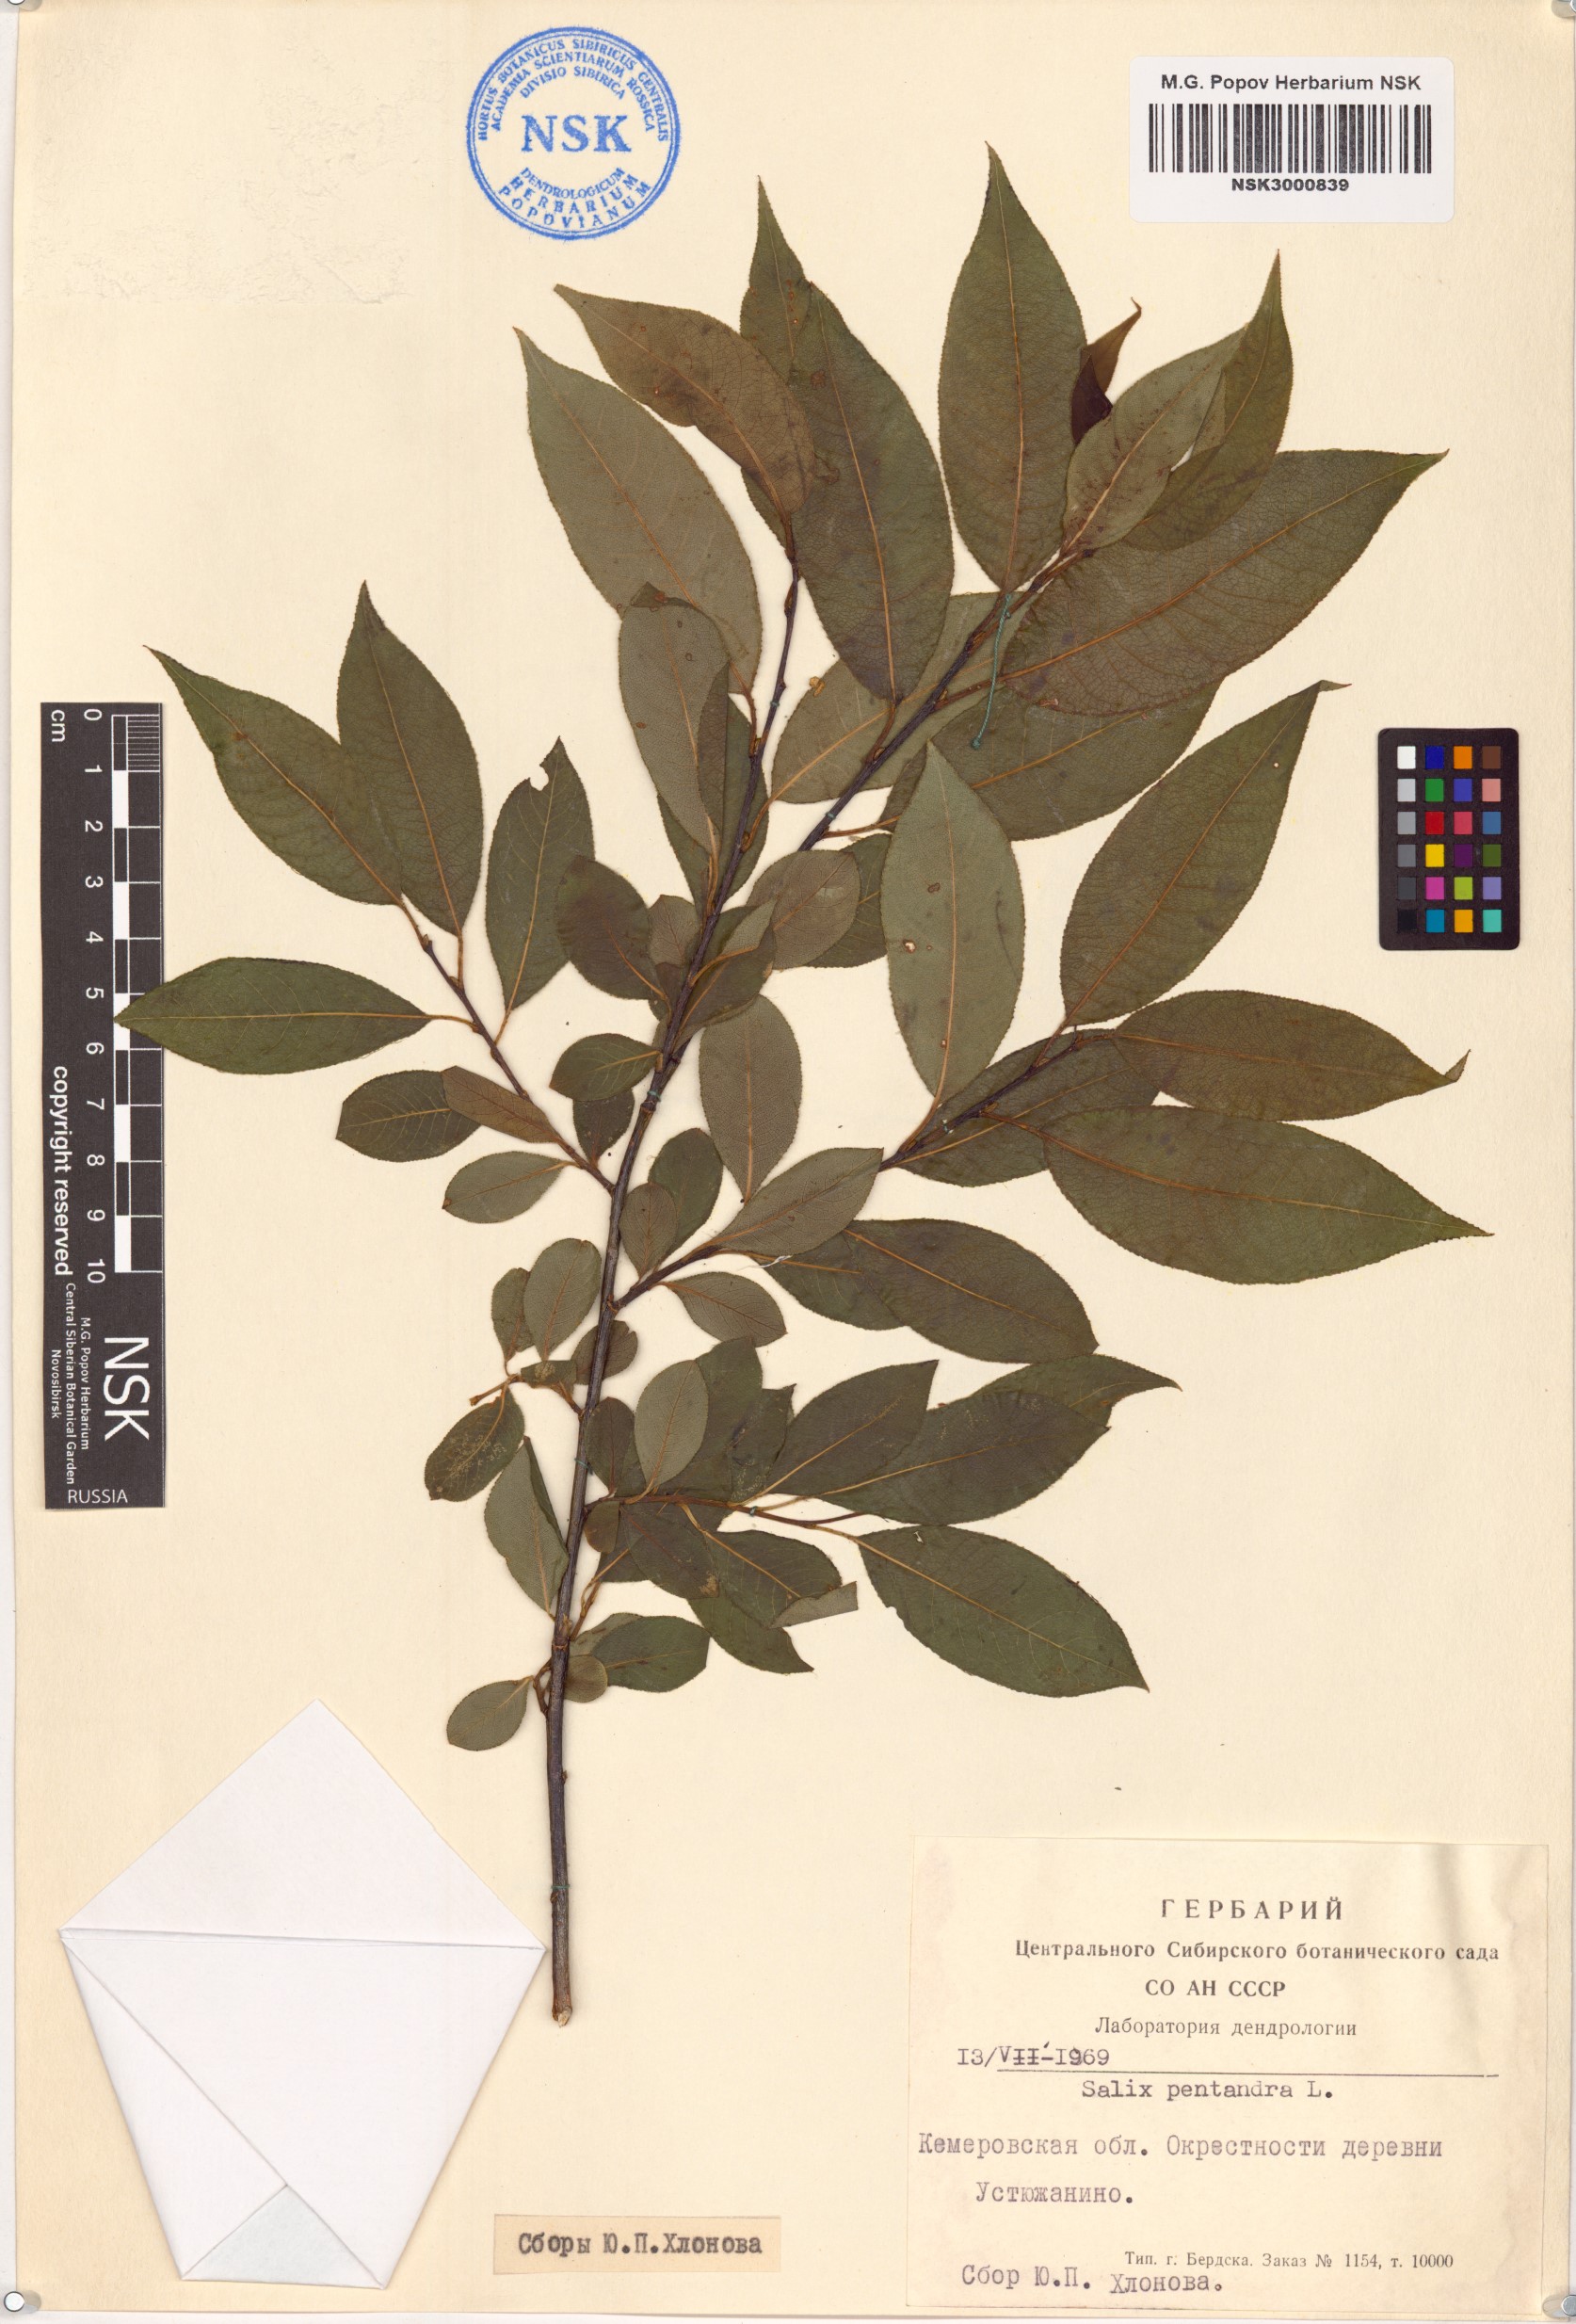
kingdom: Plantae
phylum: Tracheophyta
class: Magnoliopsida
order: Malpighiales
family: Salicaceae
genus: Salix
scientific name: Salix pentandra
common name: Bay willow
